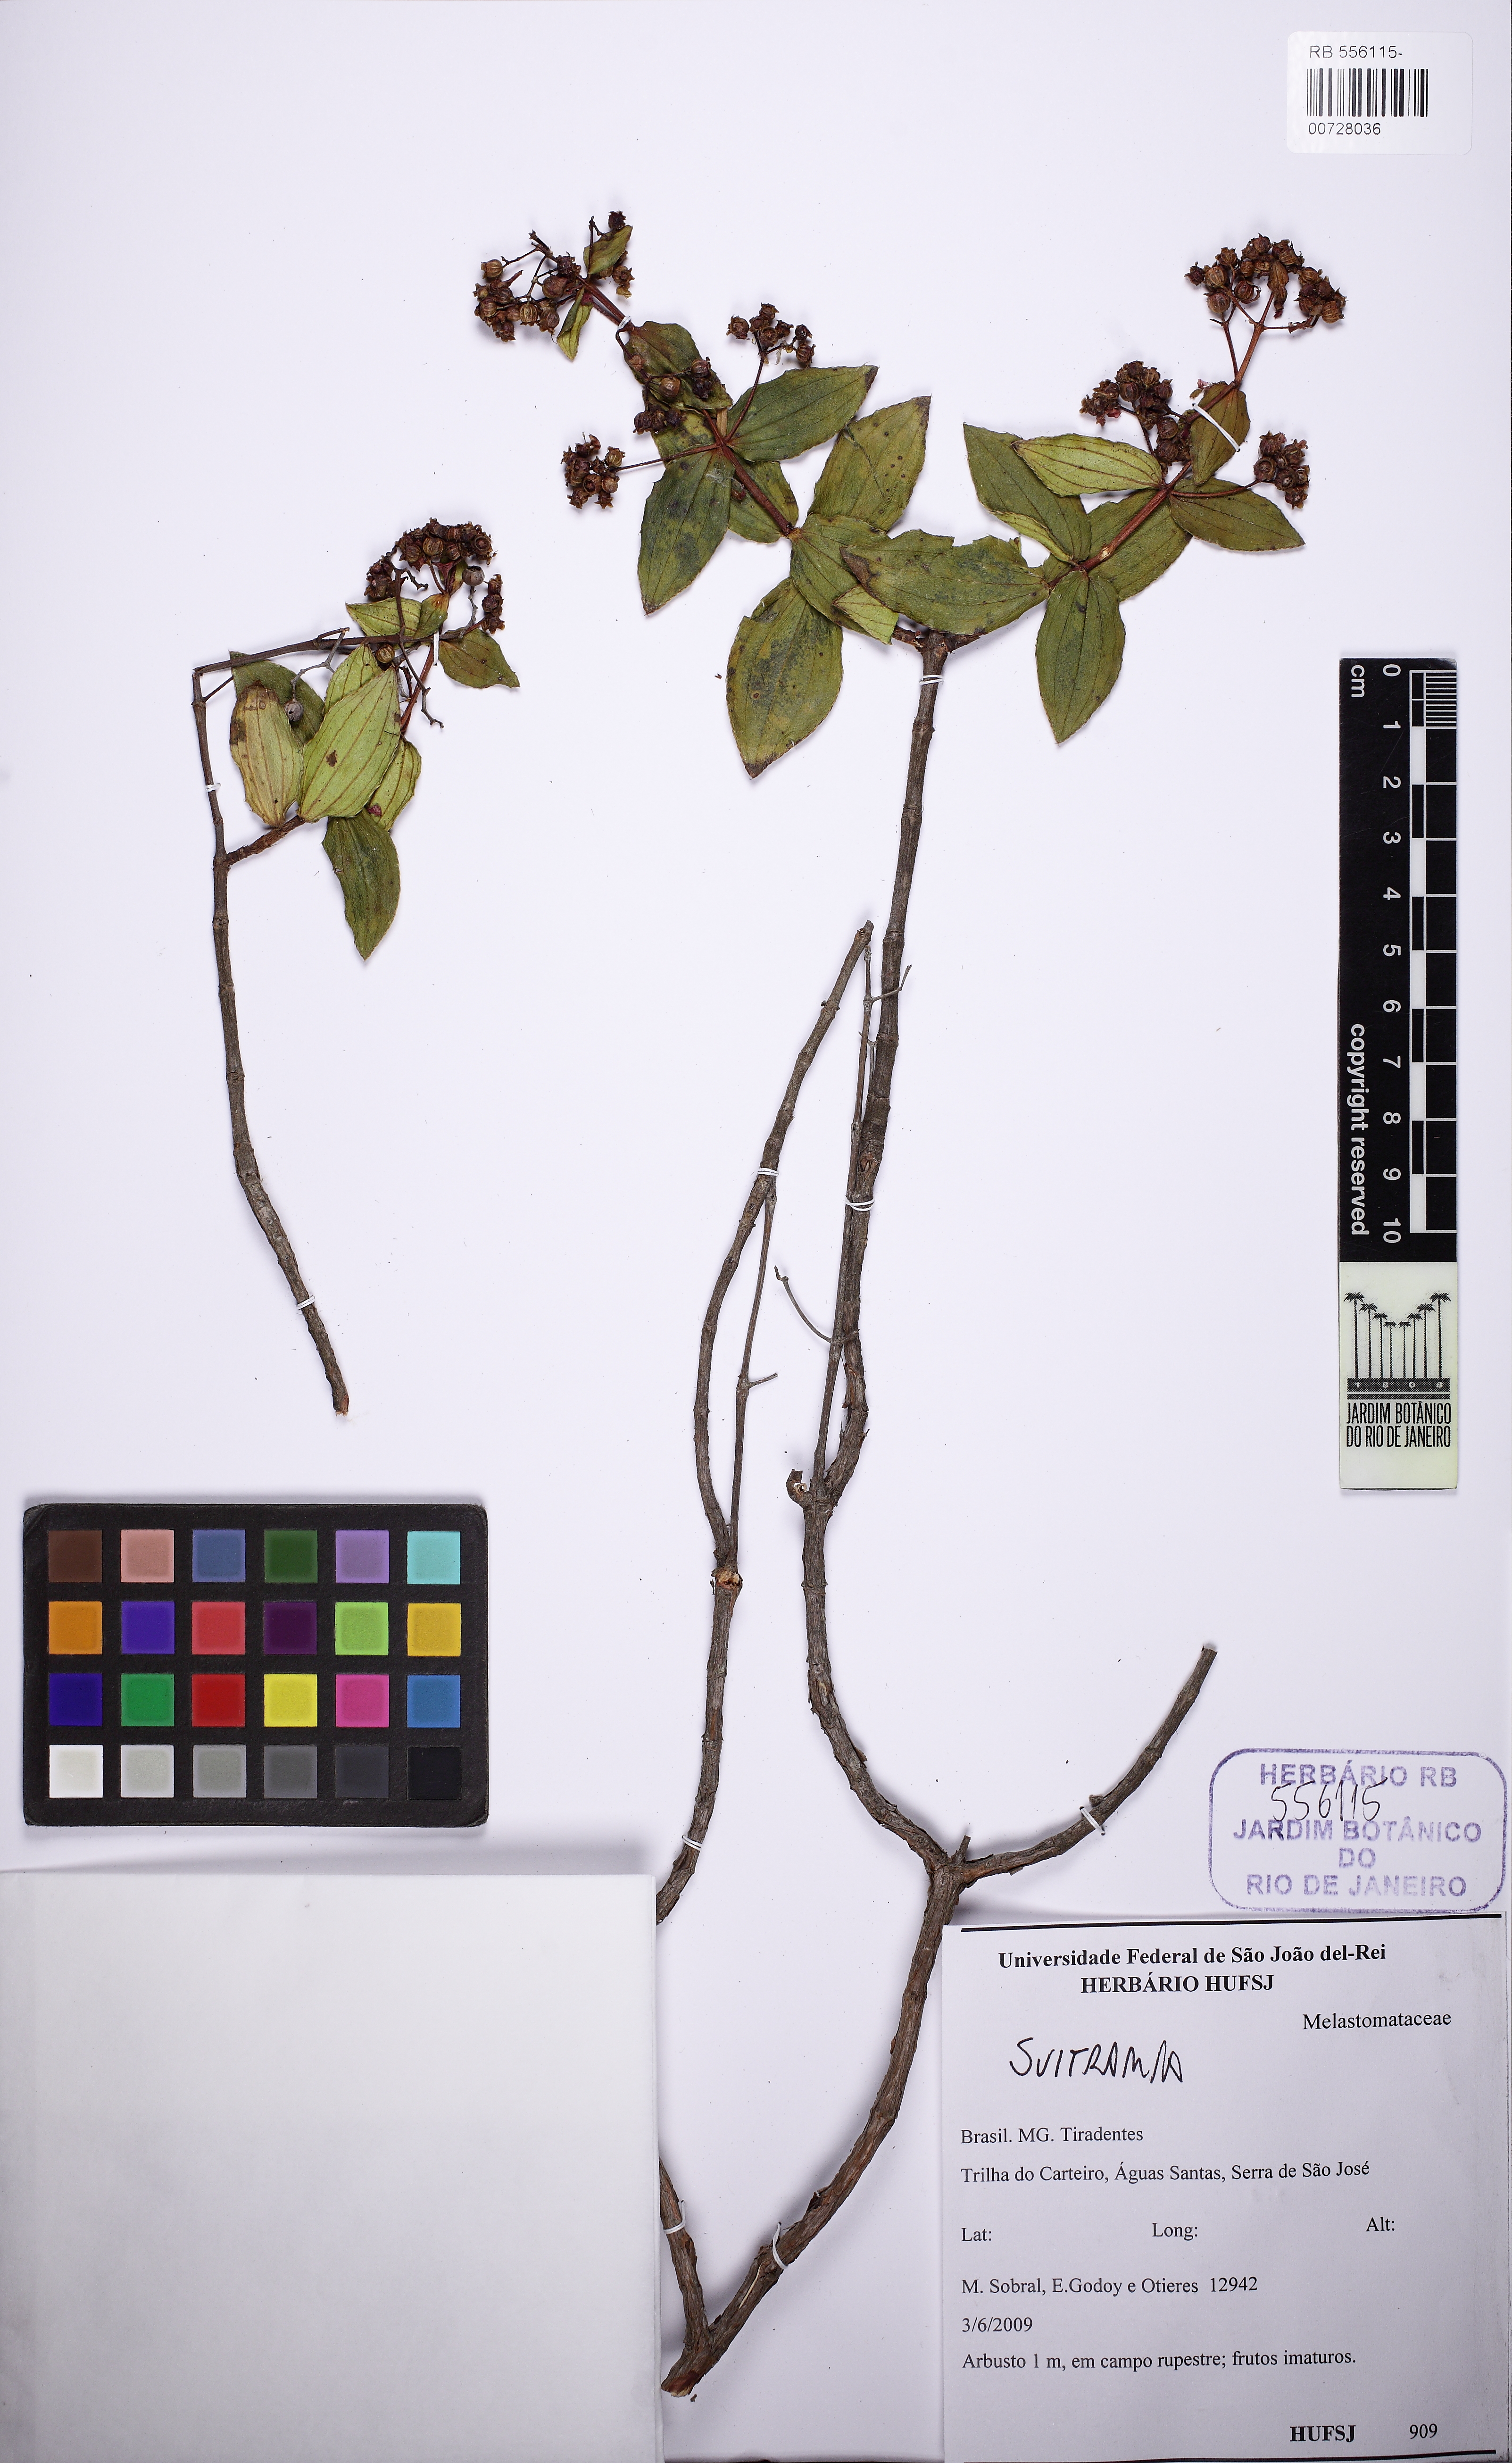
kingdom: Plantae
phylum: Tracheophyta
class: Magnoliopsida
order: Myrtales
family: Melastomataceae
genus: Pleroma
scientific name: Pleroma
